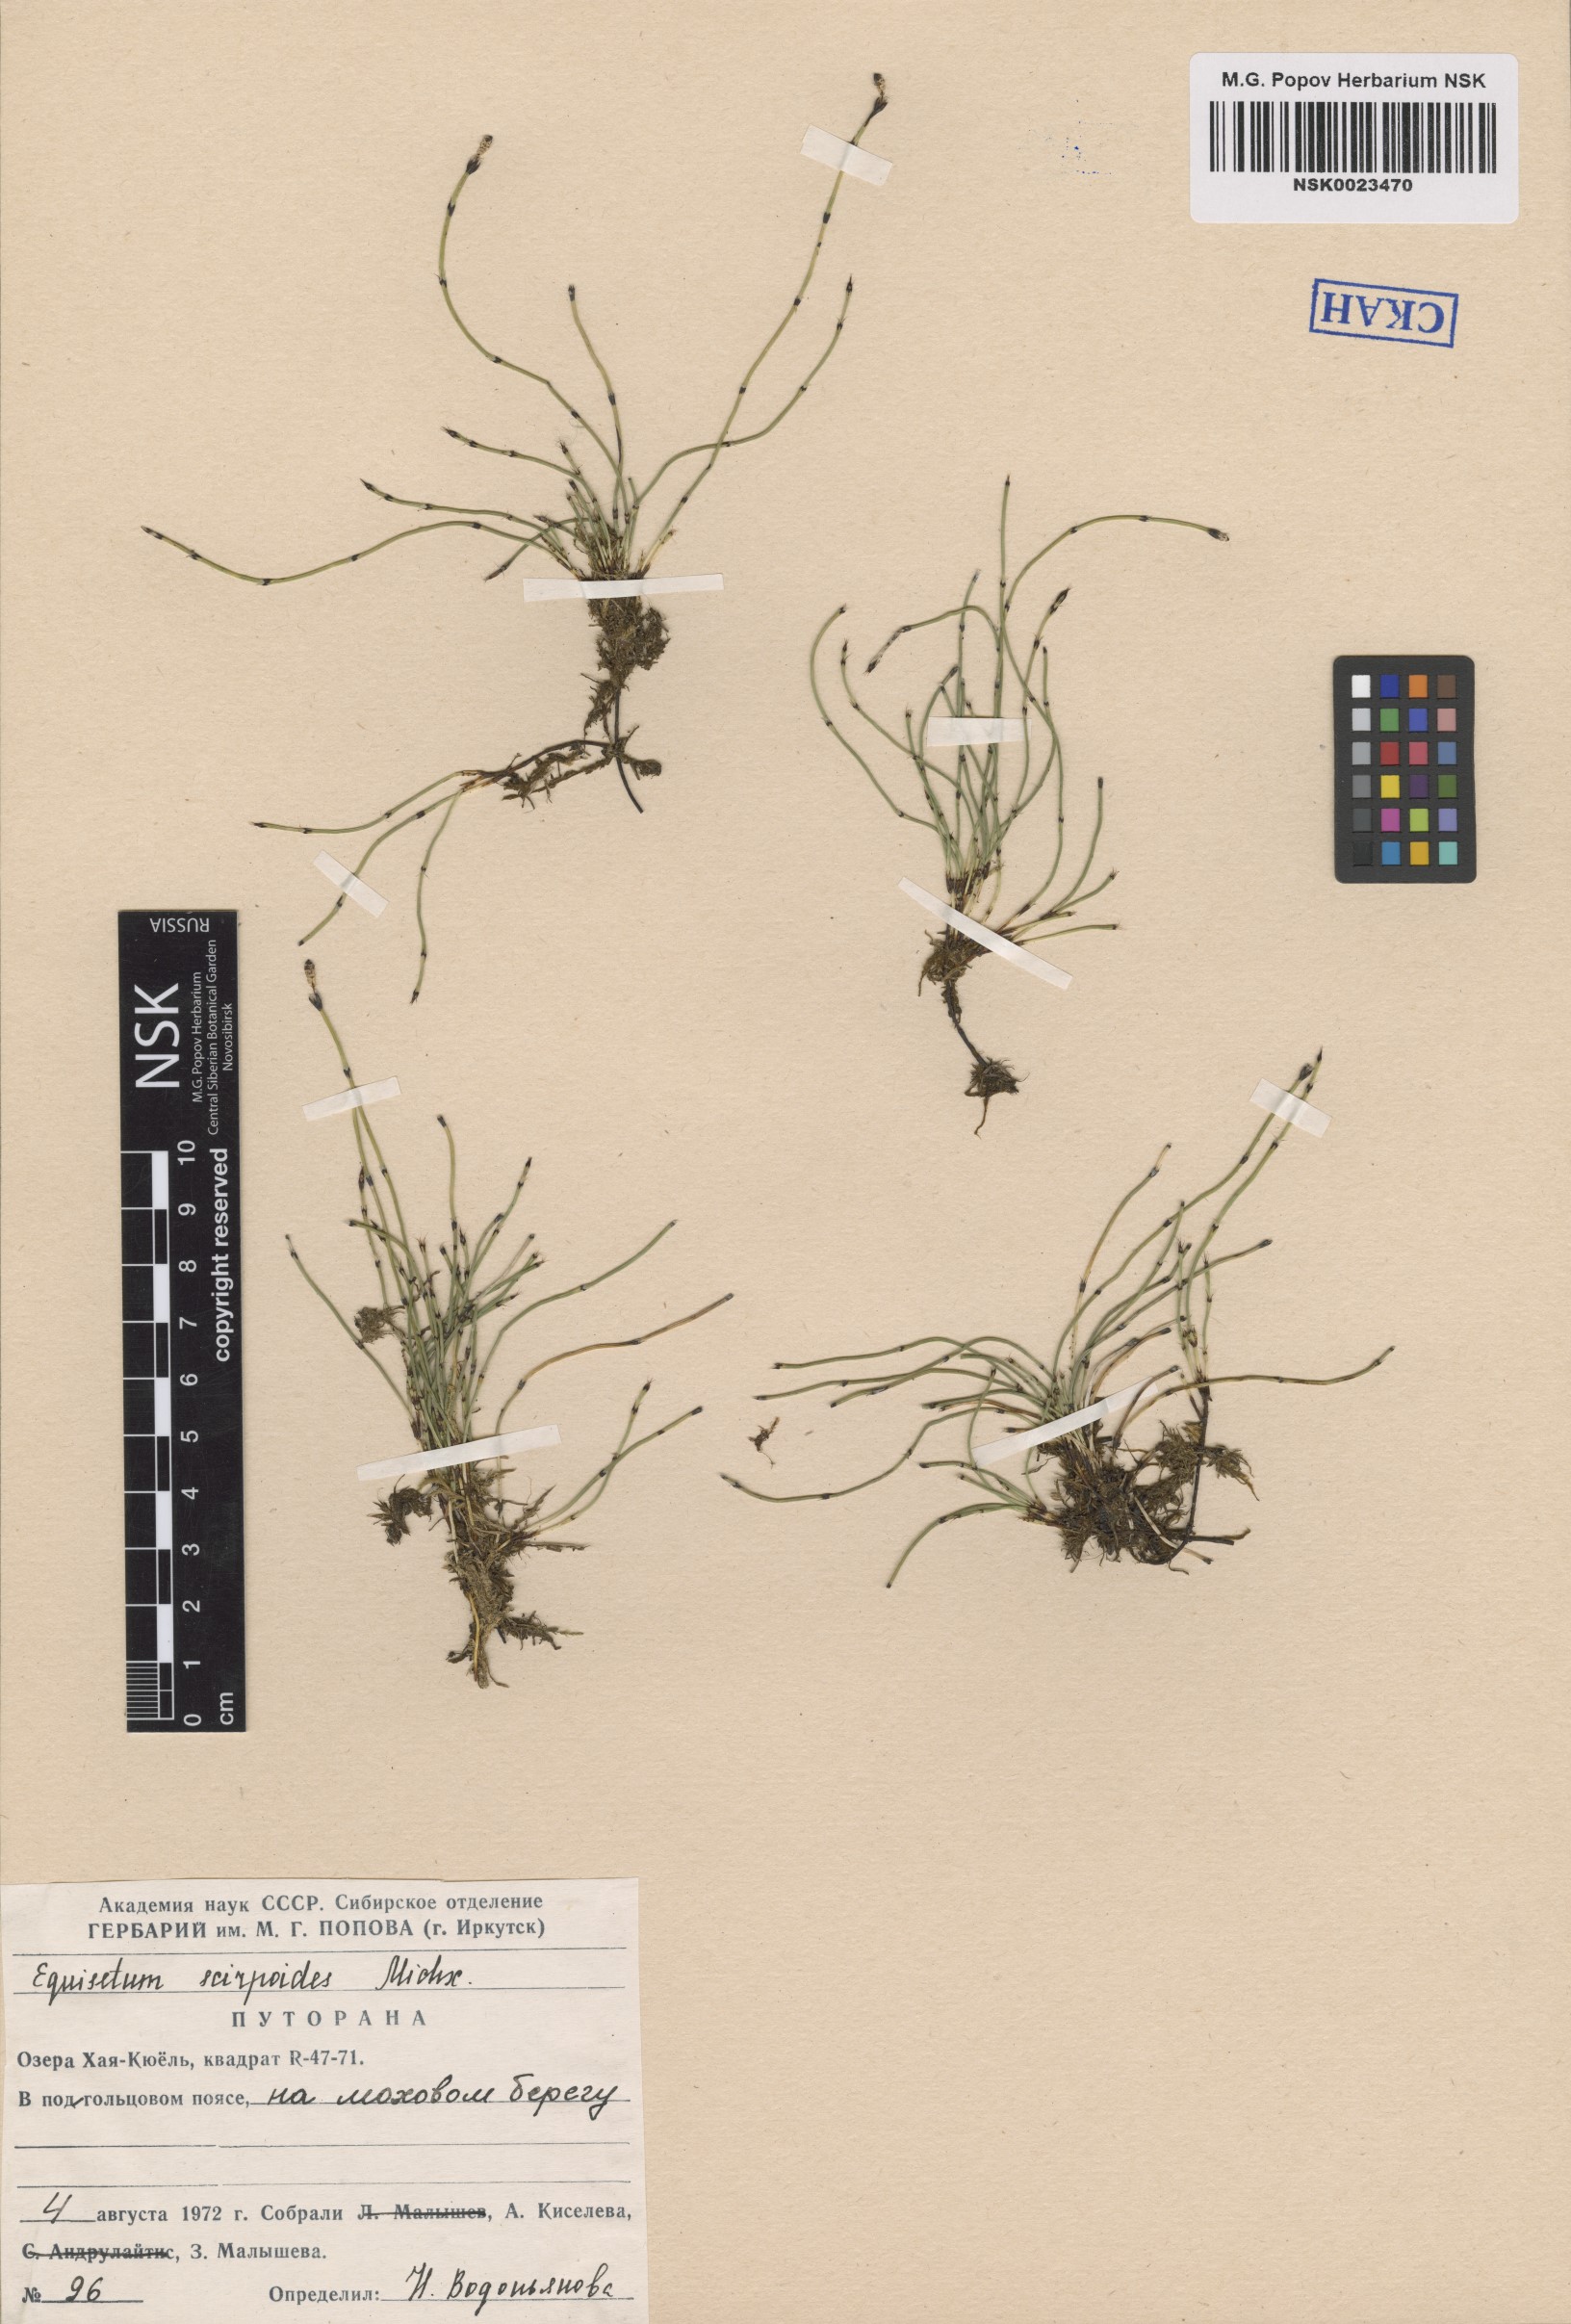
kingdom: Plantae
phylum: Tracheophyta
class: Polypodiopsida
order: Equisetales
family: Equisetaceae
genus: Equisetum
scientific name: Equisetum scirpoides
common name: Delicate horsetail
